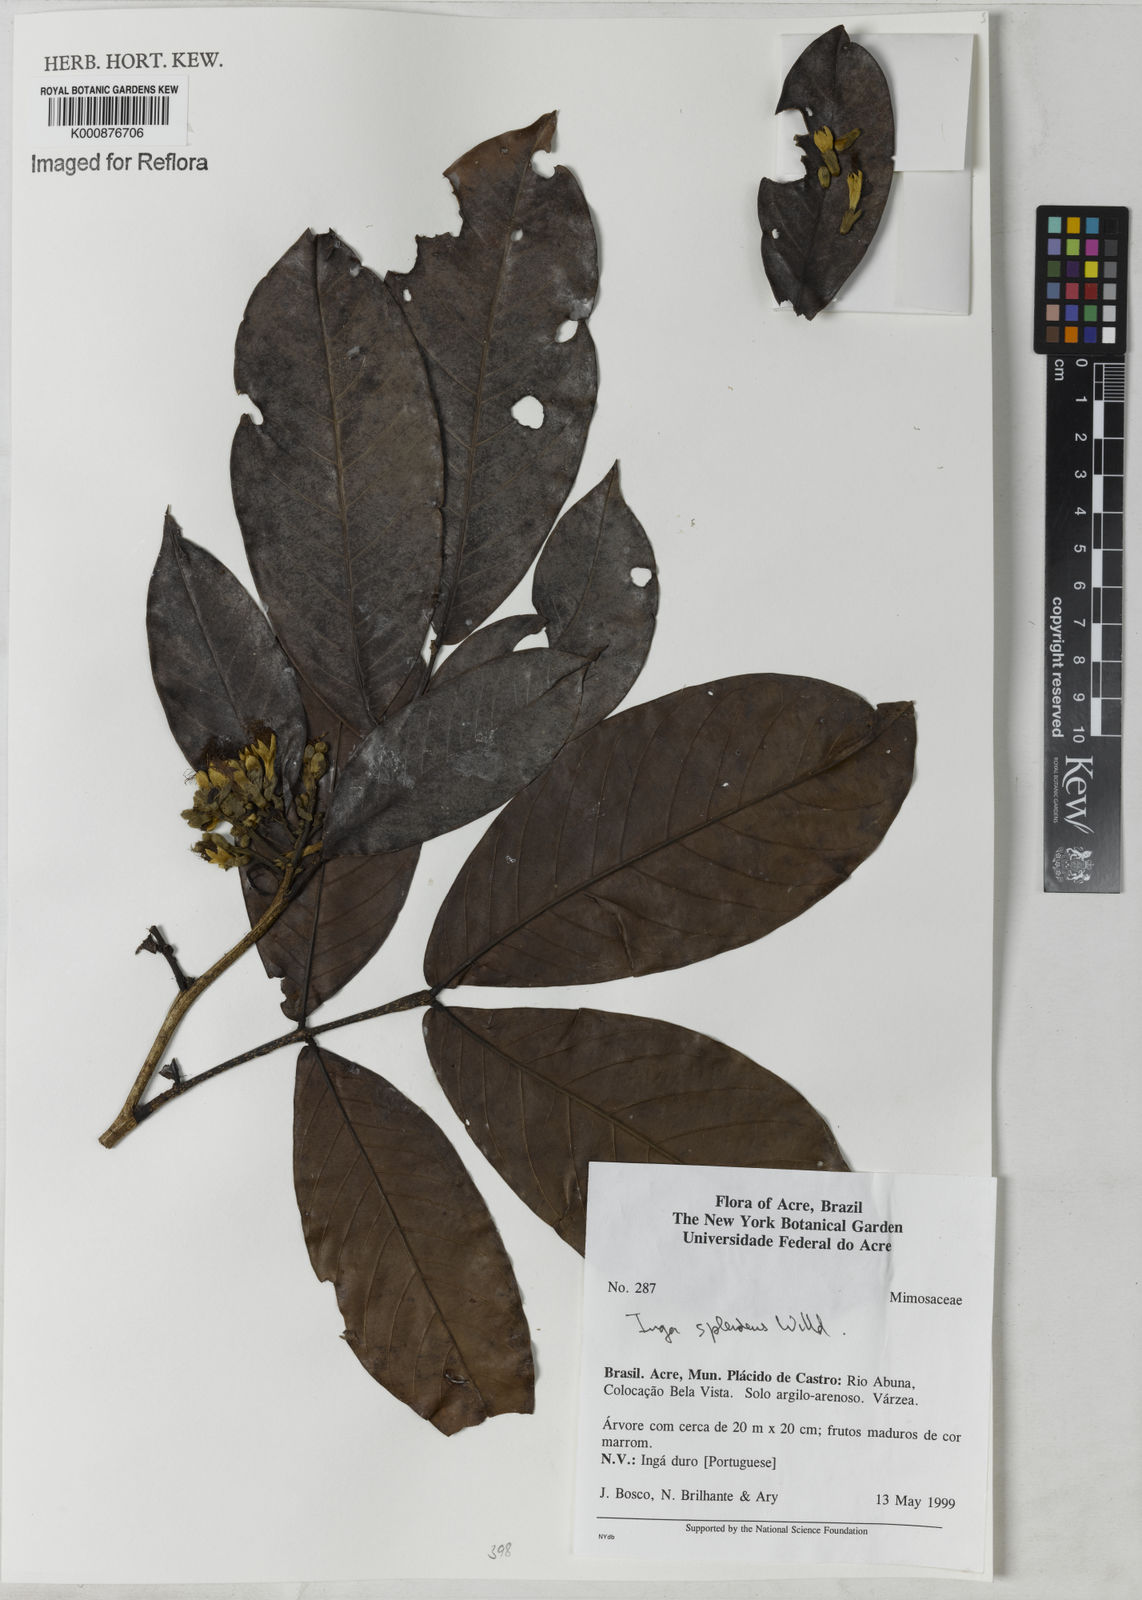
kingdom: Plantae
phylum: Tracheophyta
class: Magnoliopsida
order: Fabales
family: Fabaceae
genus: Inga
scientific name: Inga splendens
